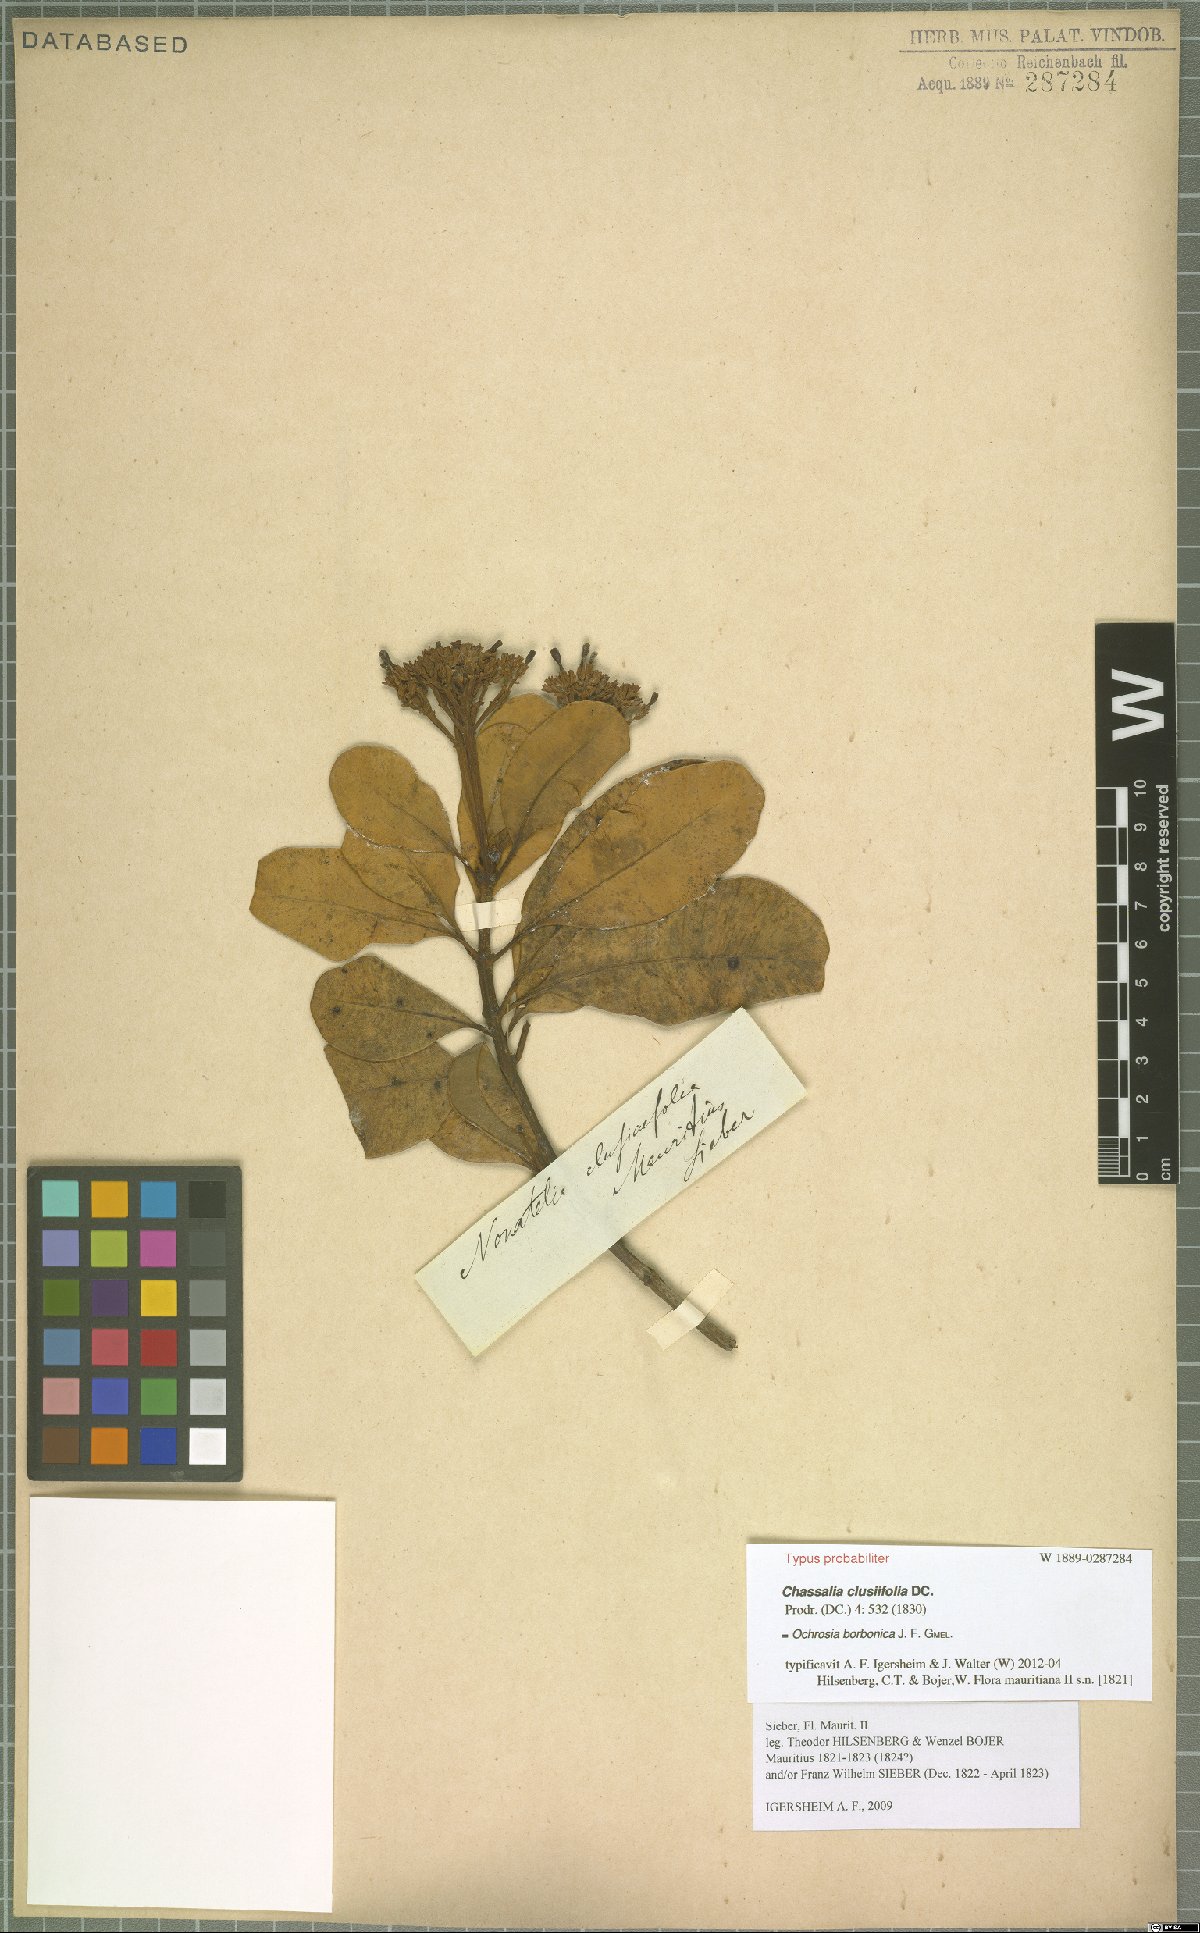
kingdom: Plantae
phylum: Tracheophyta
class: Magnoliopsida
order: Gentianales
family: Apocynaceae
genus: Ochrosia
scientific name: Ochrosia borbonica
